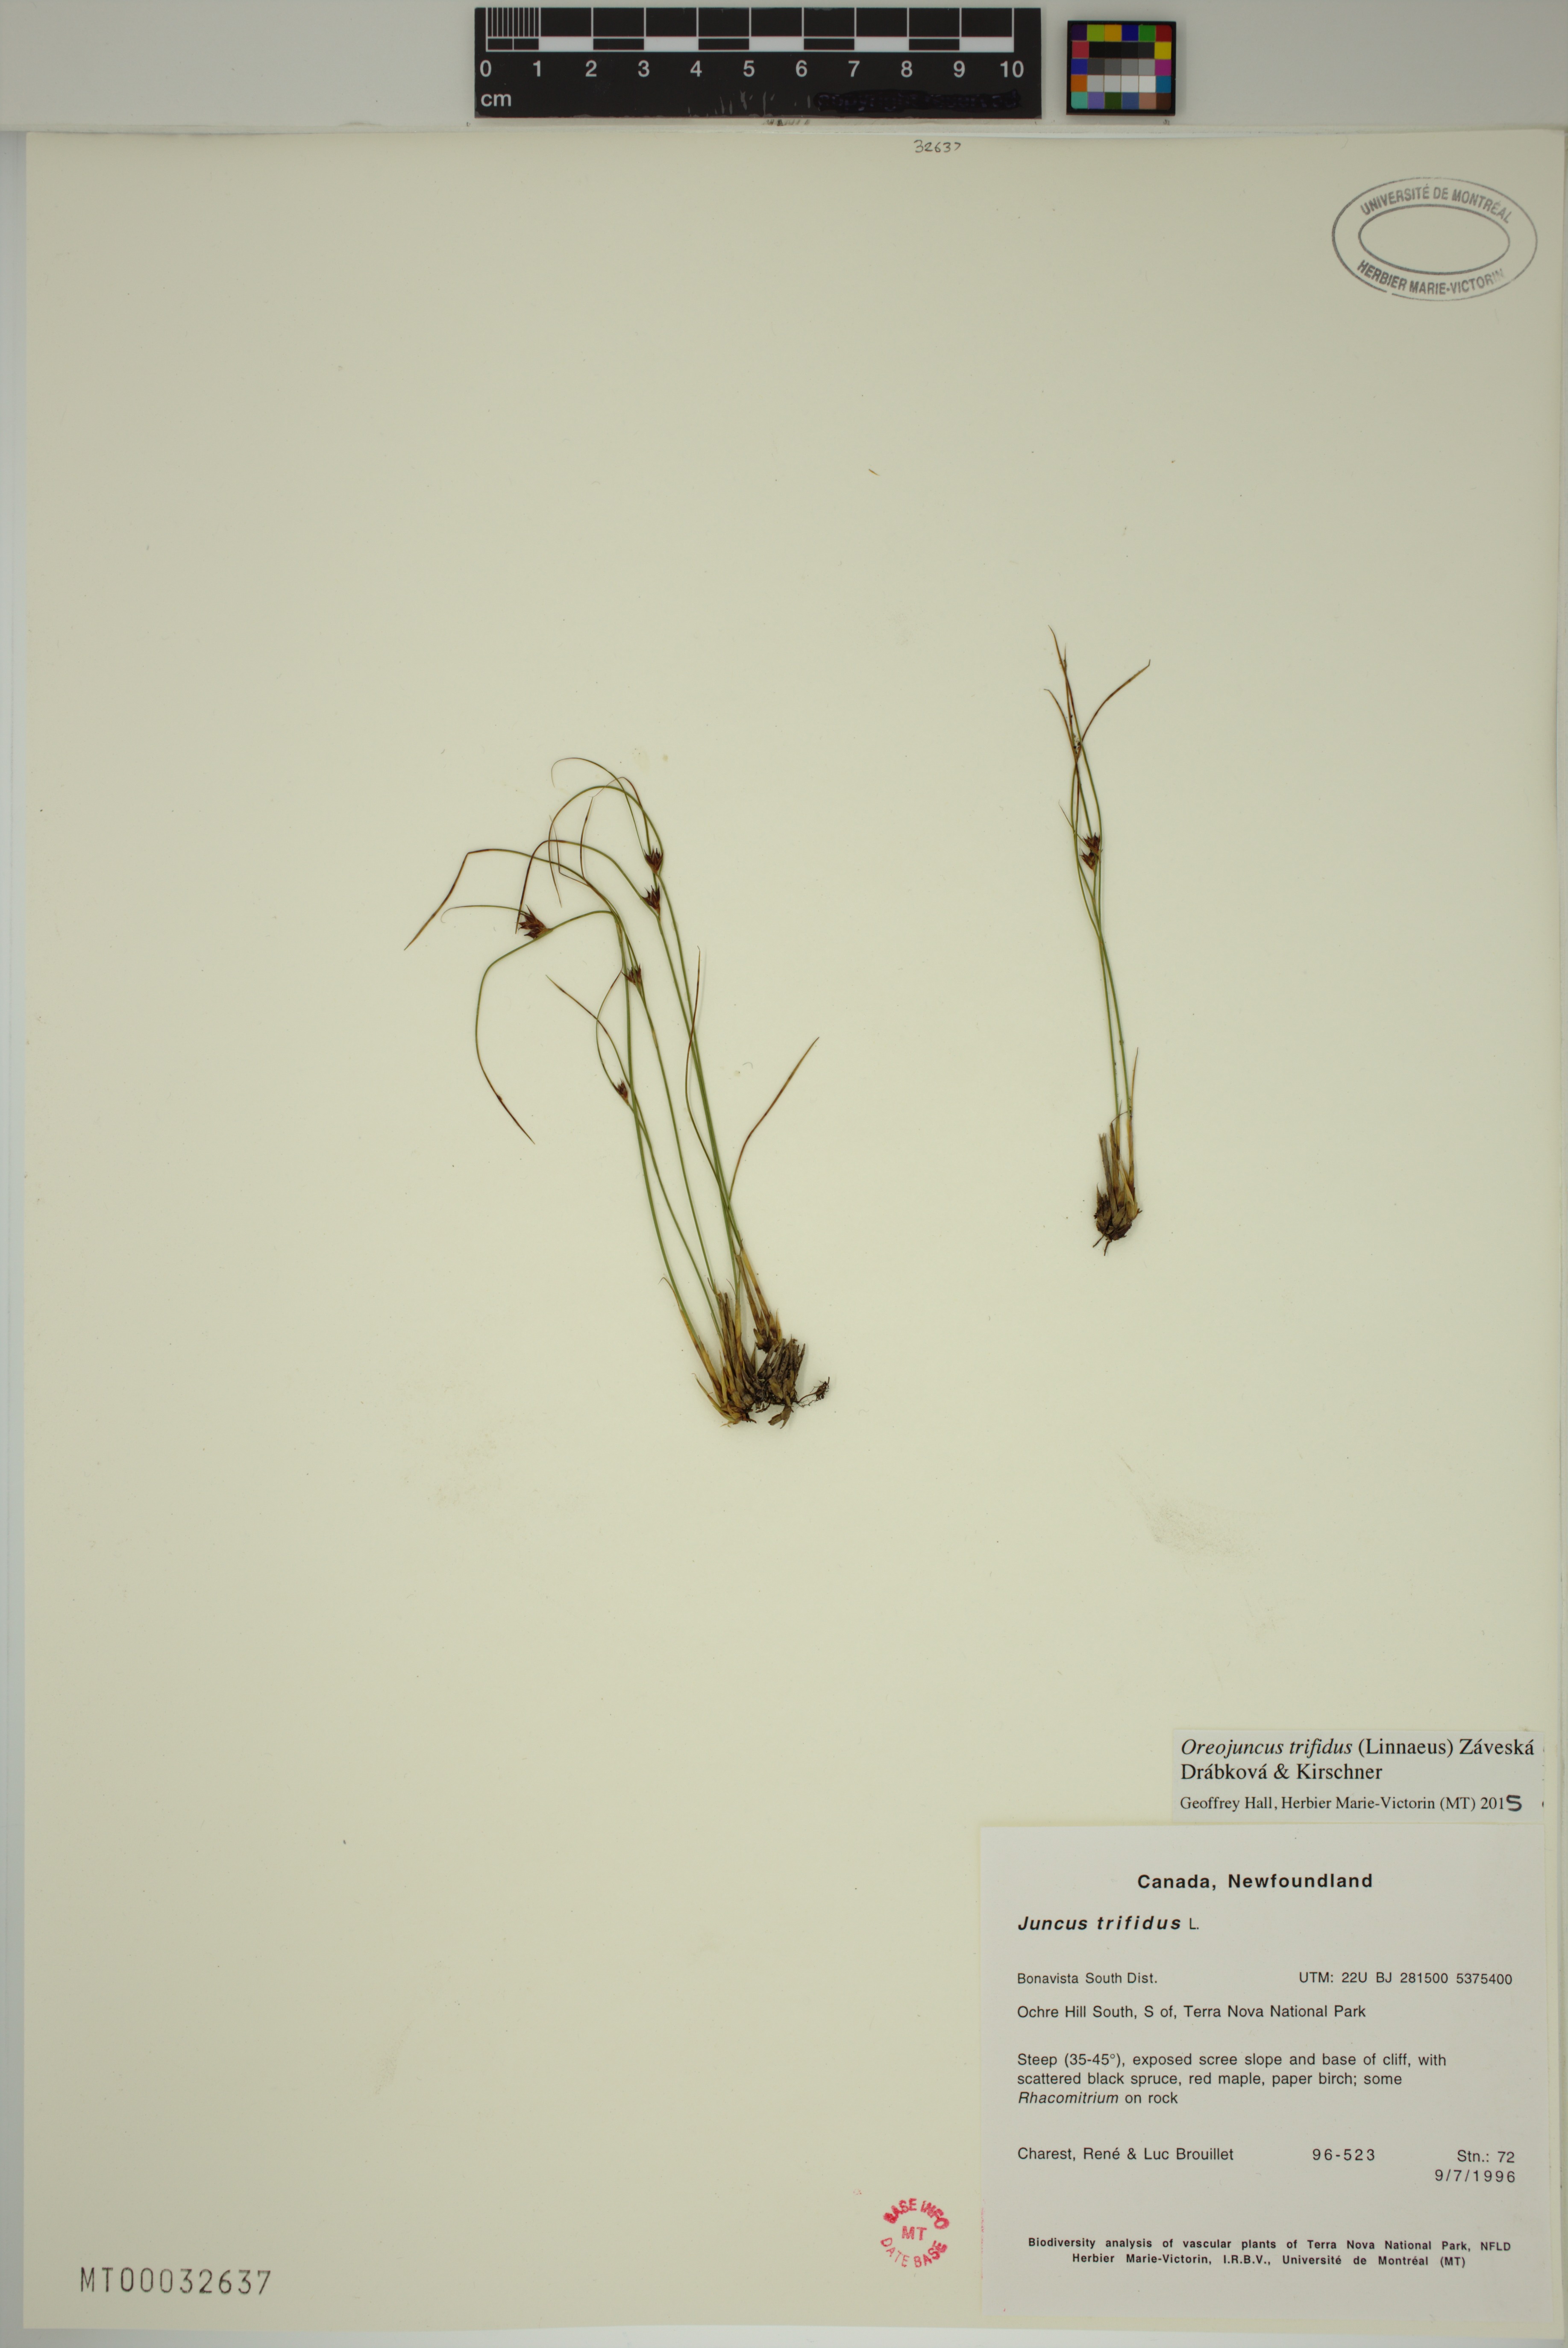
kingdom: Plantae
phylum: Tracheophyta
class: Liliopsida
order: Poales
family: Juncaceae
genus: Oreojuncus
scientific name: Oreojuncus trifidus
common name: Highland rush
